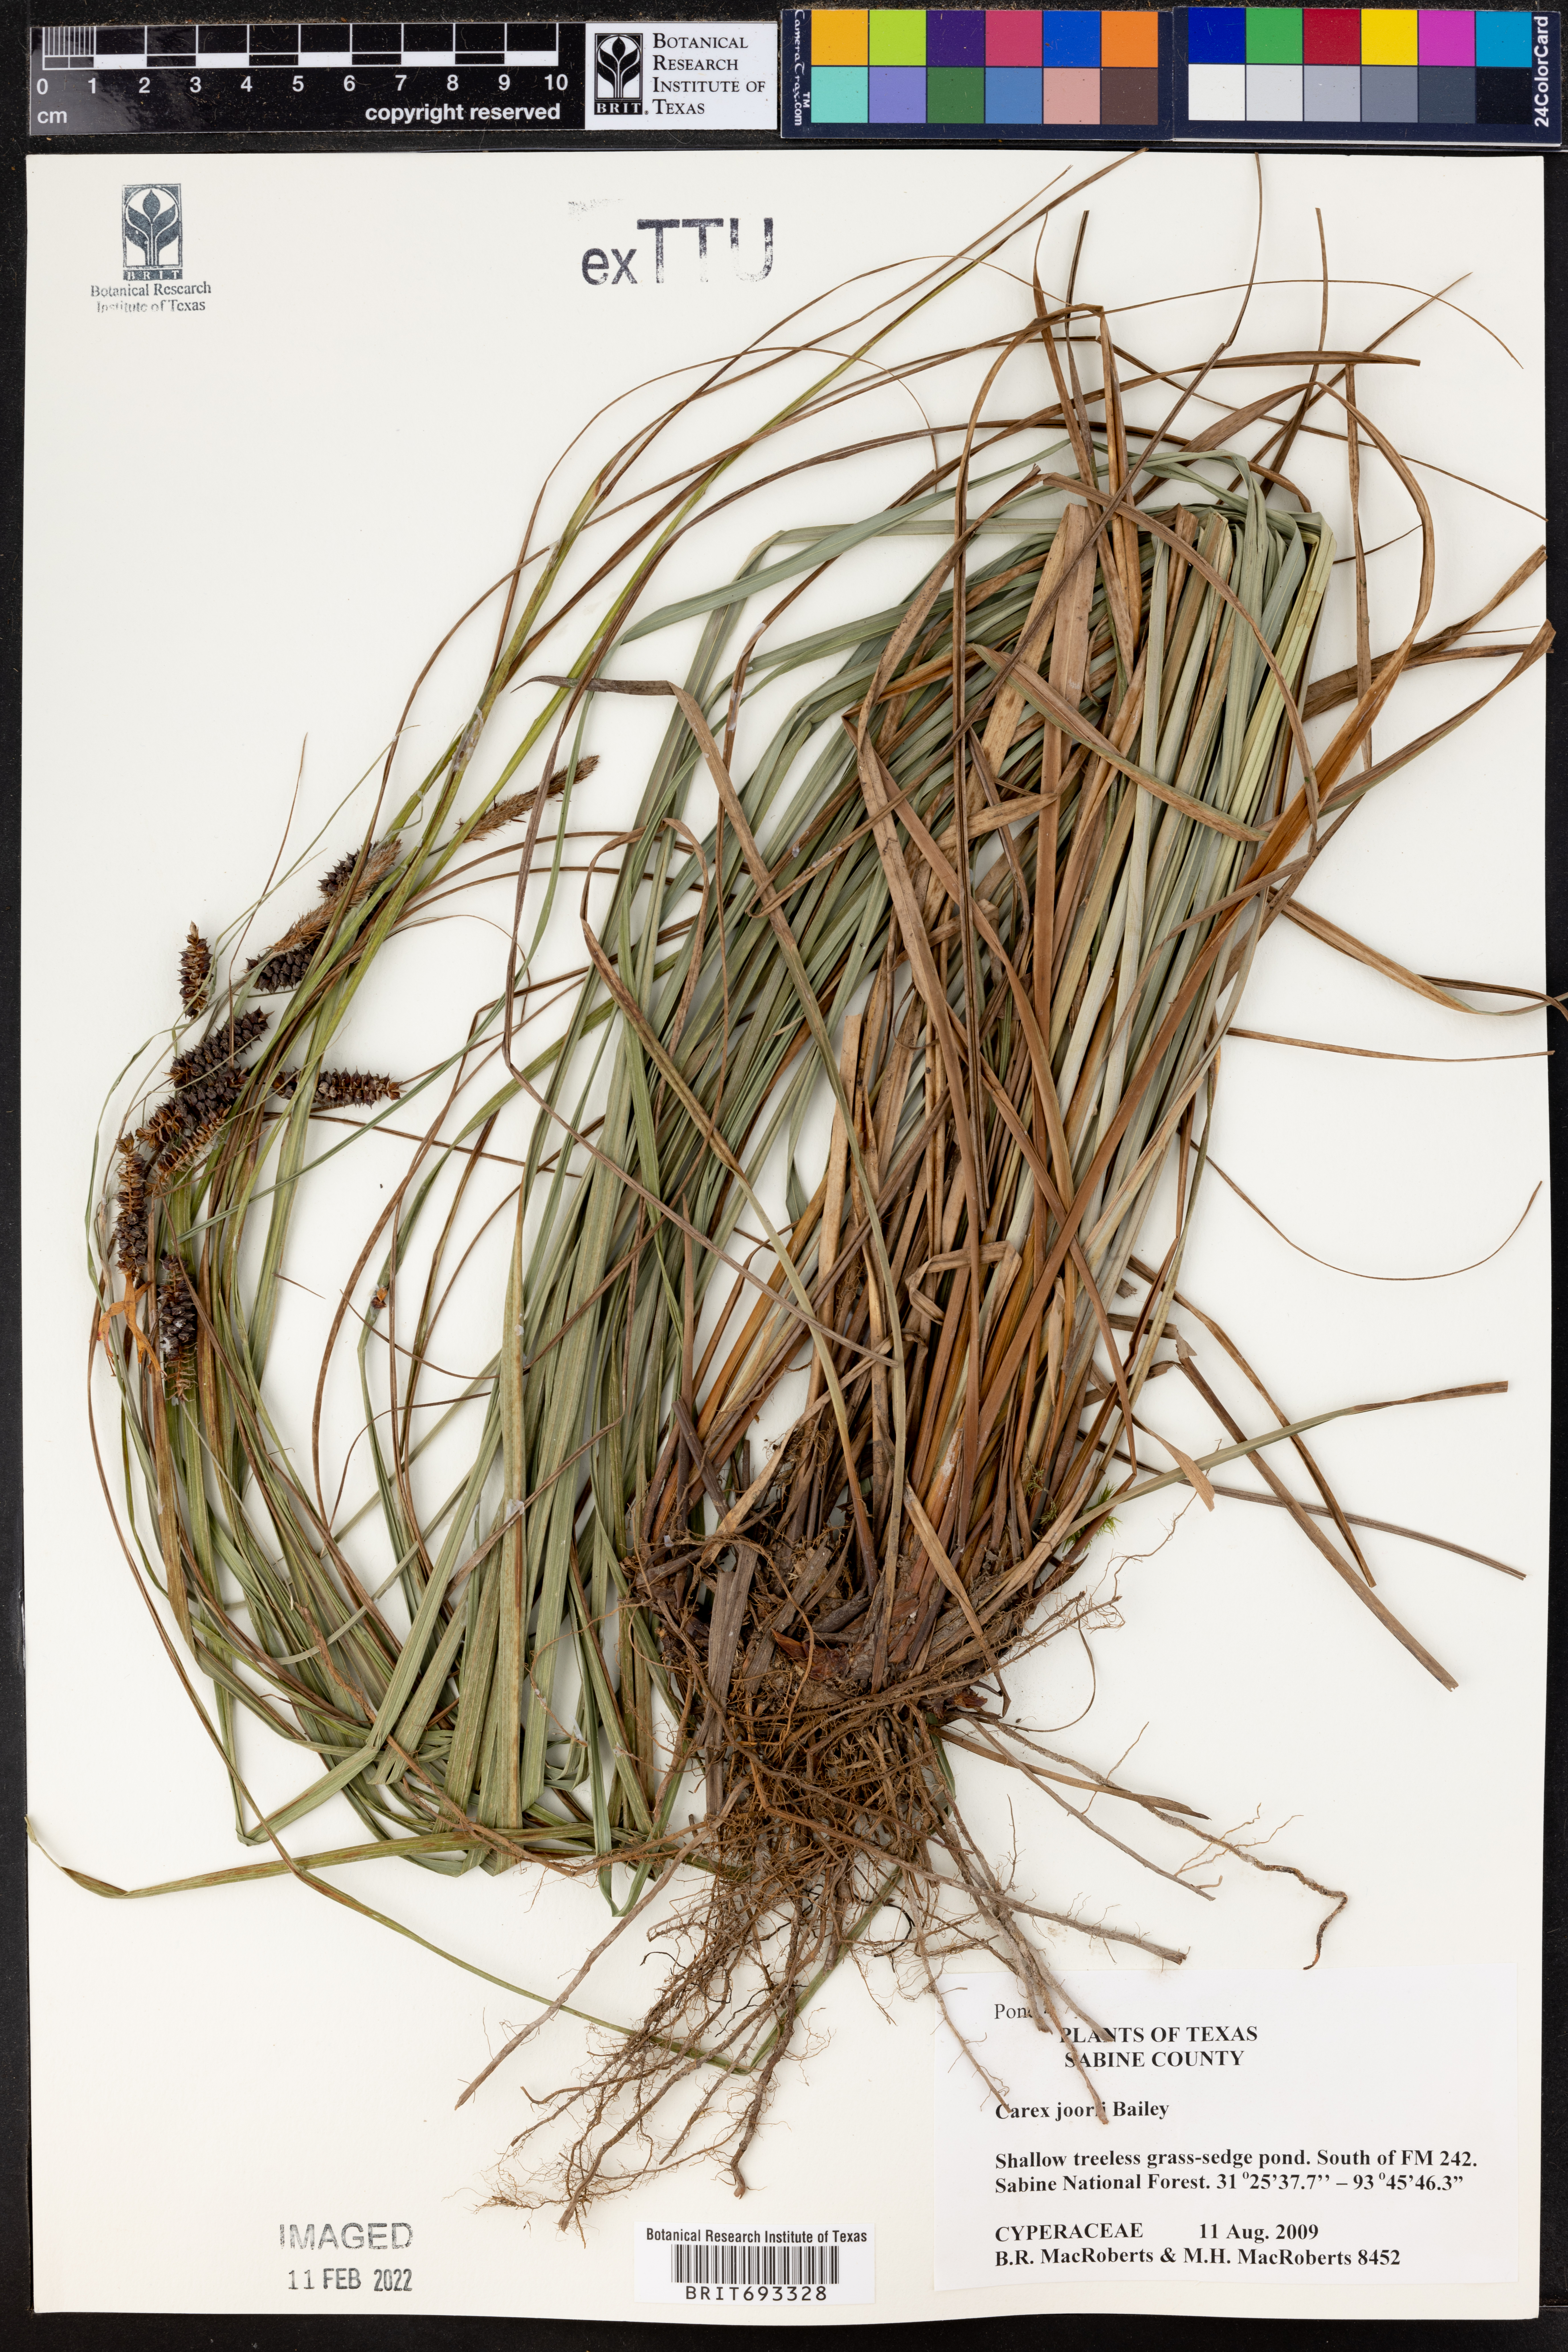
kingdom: Plantae
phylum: Tracheophyta
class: Liliopsida
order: Poales
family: Cyperaceae
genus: Carex
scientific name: Carex joorii
